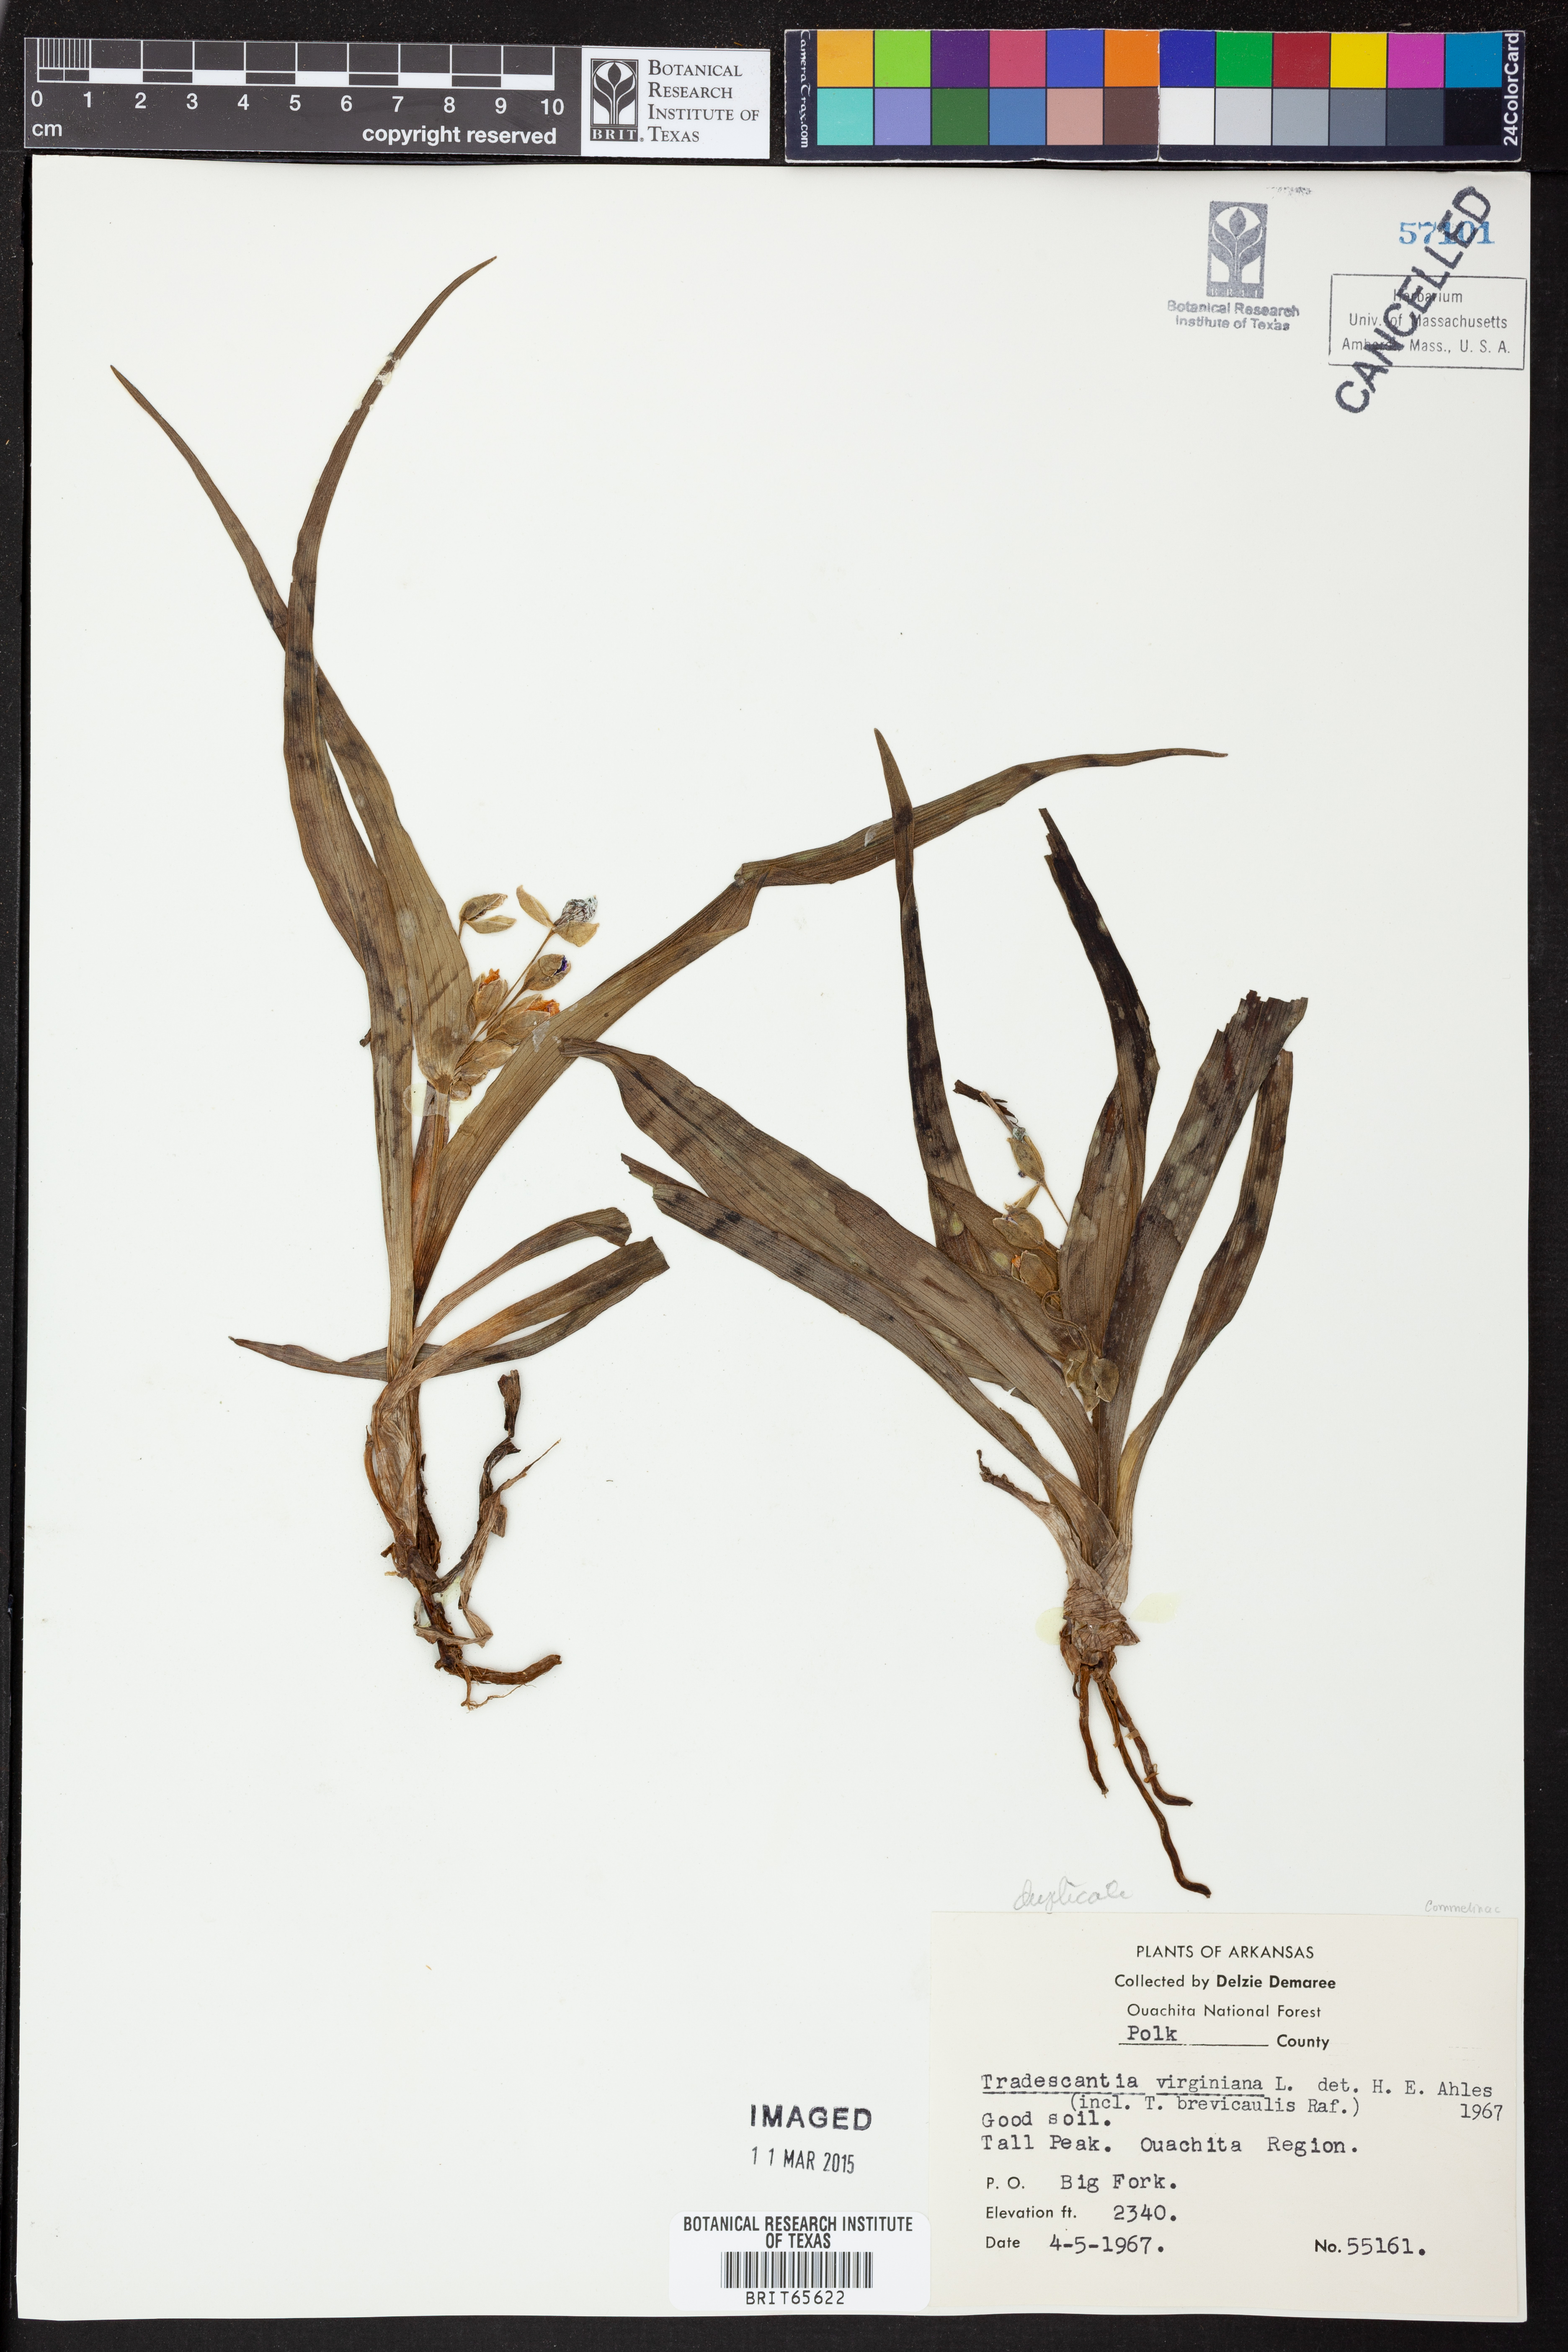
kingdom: Plantae
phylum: Tracheophyta
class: Liliopsida
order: Commelinales
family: Commelinaceae
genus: Tradescantia
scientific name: Tradescantia virginiana
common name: Spiderwort
